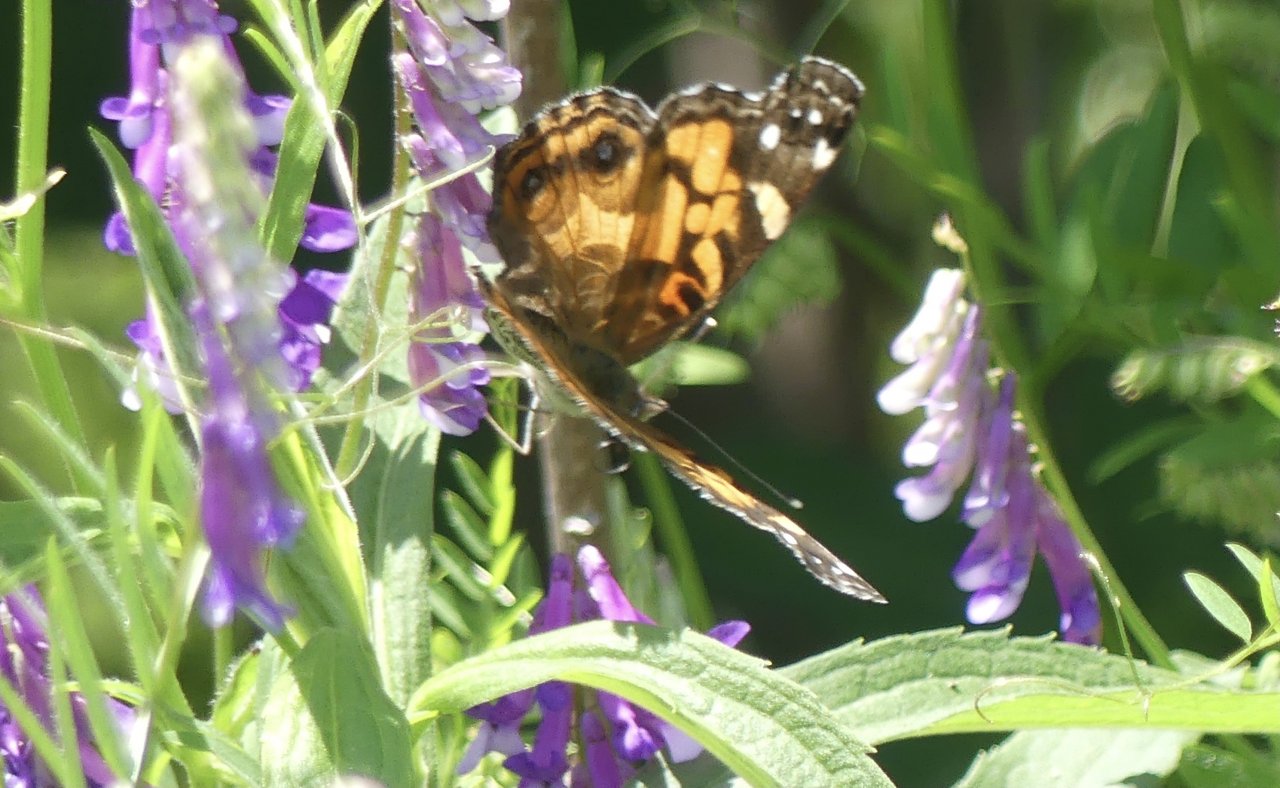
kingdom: Animalia
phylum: Arthropoda
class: Insecta
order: Lepidoptera
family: Nymphalidae
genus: Vanessa
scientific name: Vanessa virginiensis
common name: American Lady
